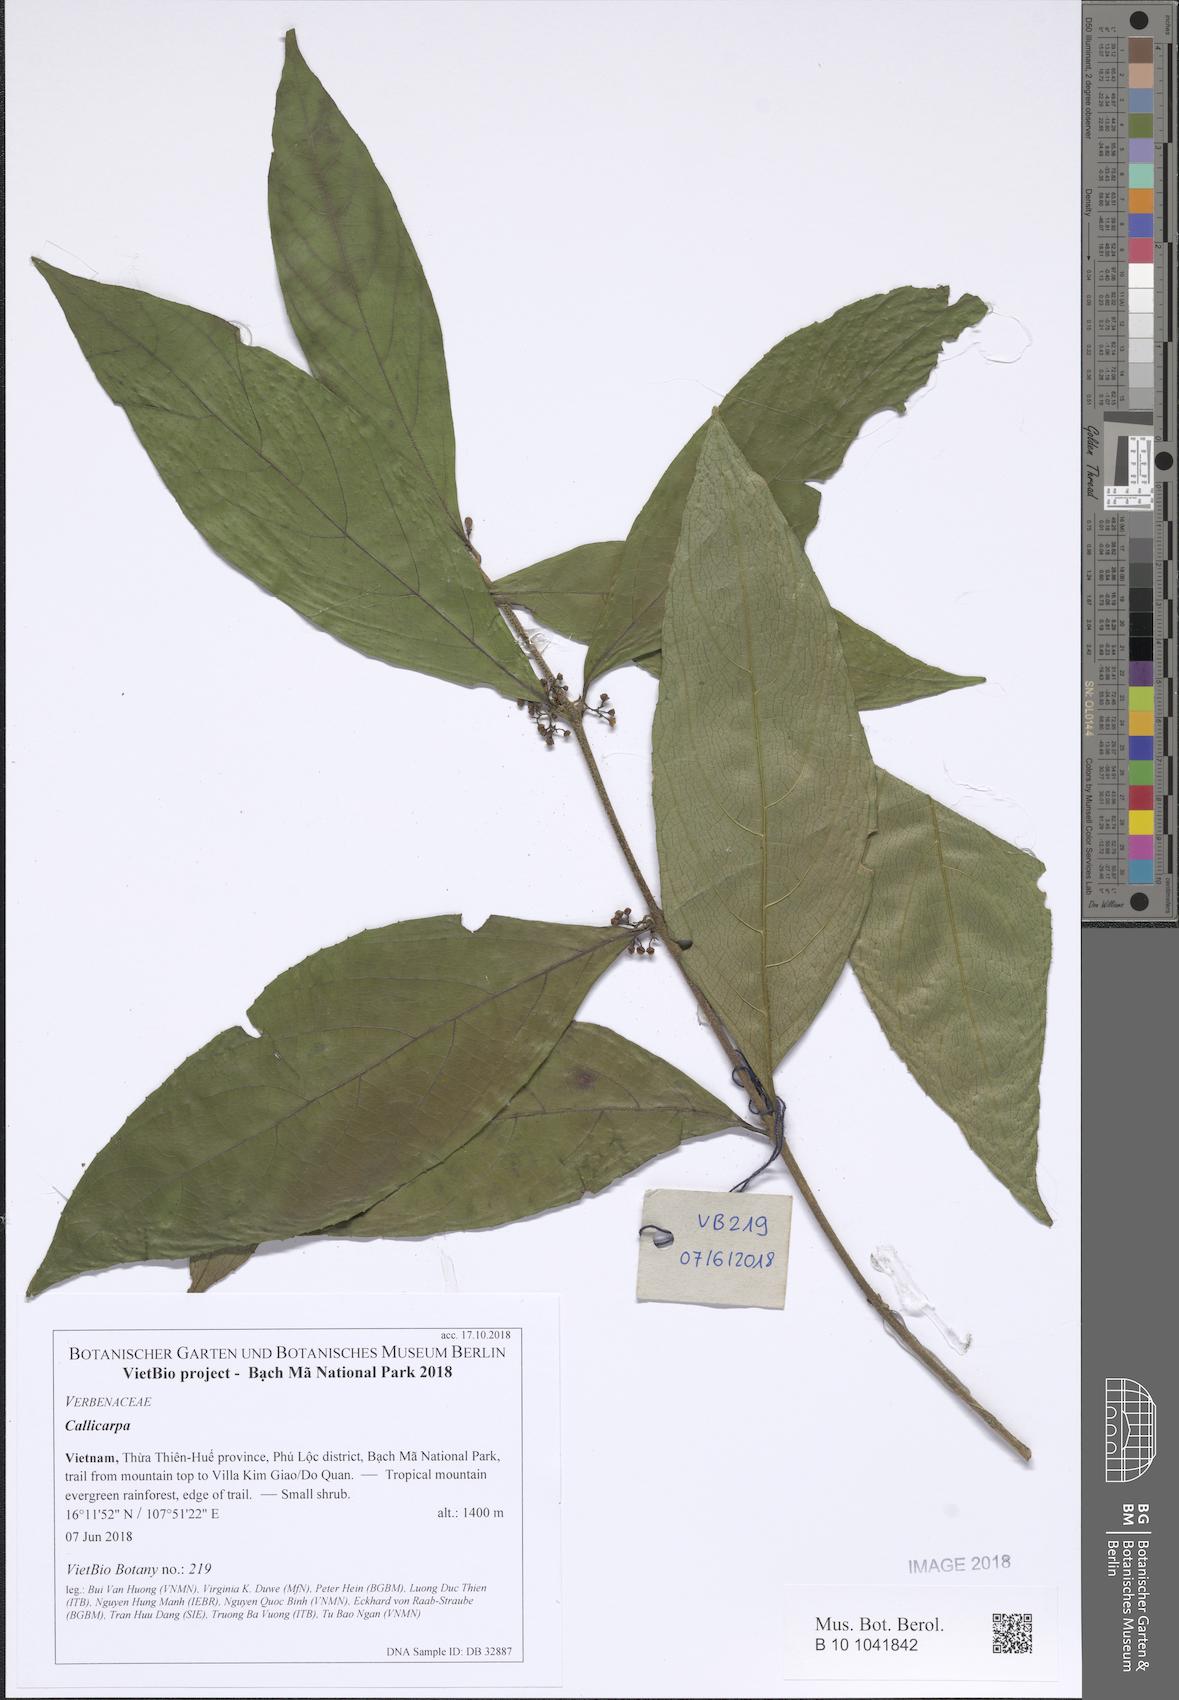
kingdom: Plantae
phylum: Tracheophyta
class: Magnoliopsida
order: Lamiales
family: Lamiaceae
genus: Callicarpa
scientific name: Callicarpa
